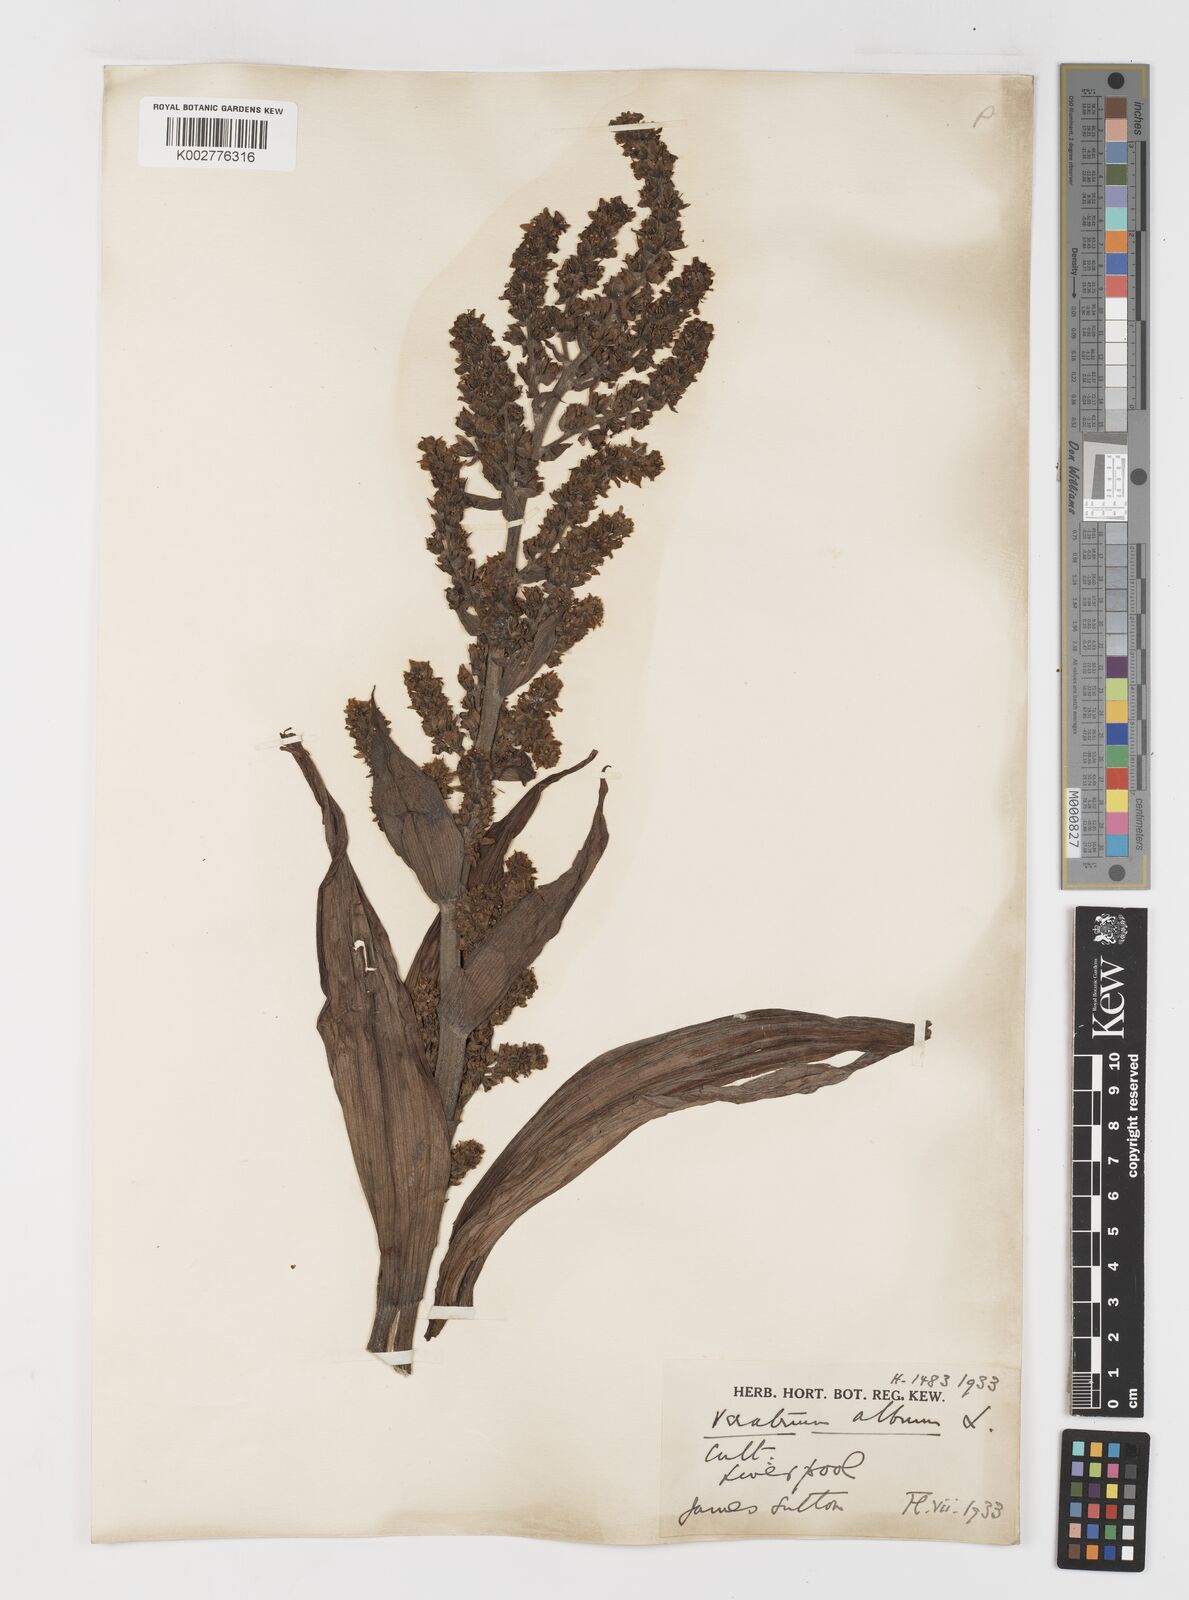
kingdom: Plantae
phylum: Tracheophyta
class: Liliopsida
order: Liliales
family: Melanthiaceae
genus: Veratrum
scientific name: Veratrum album
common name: White veratrum
